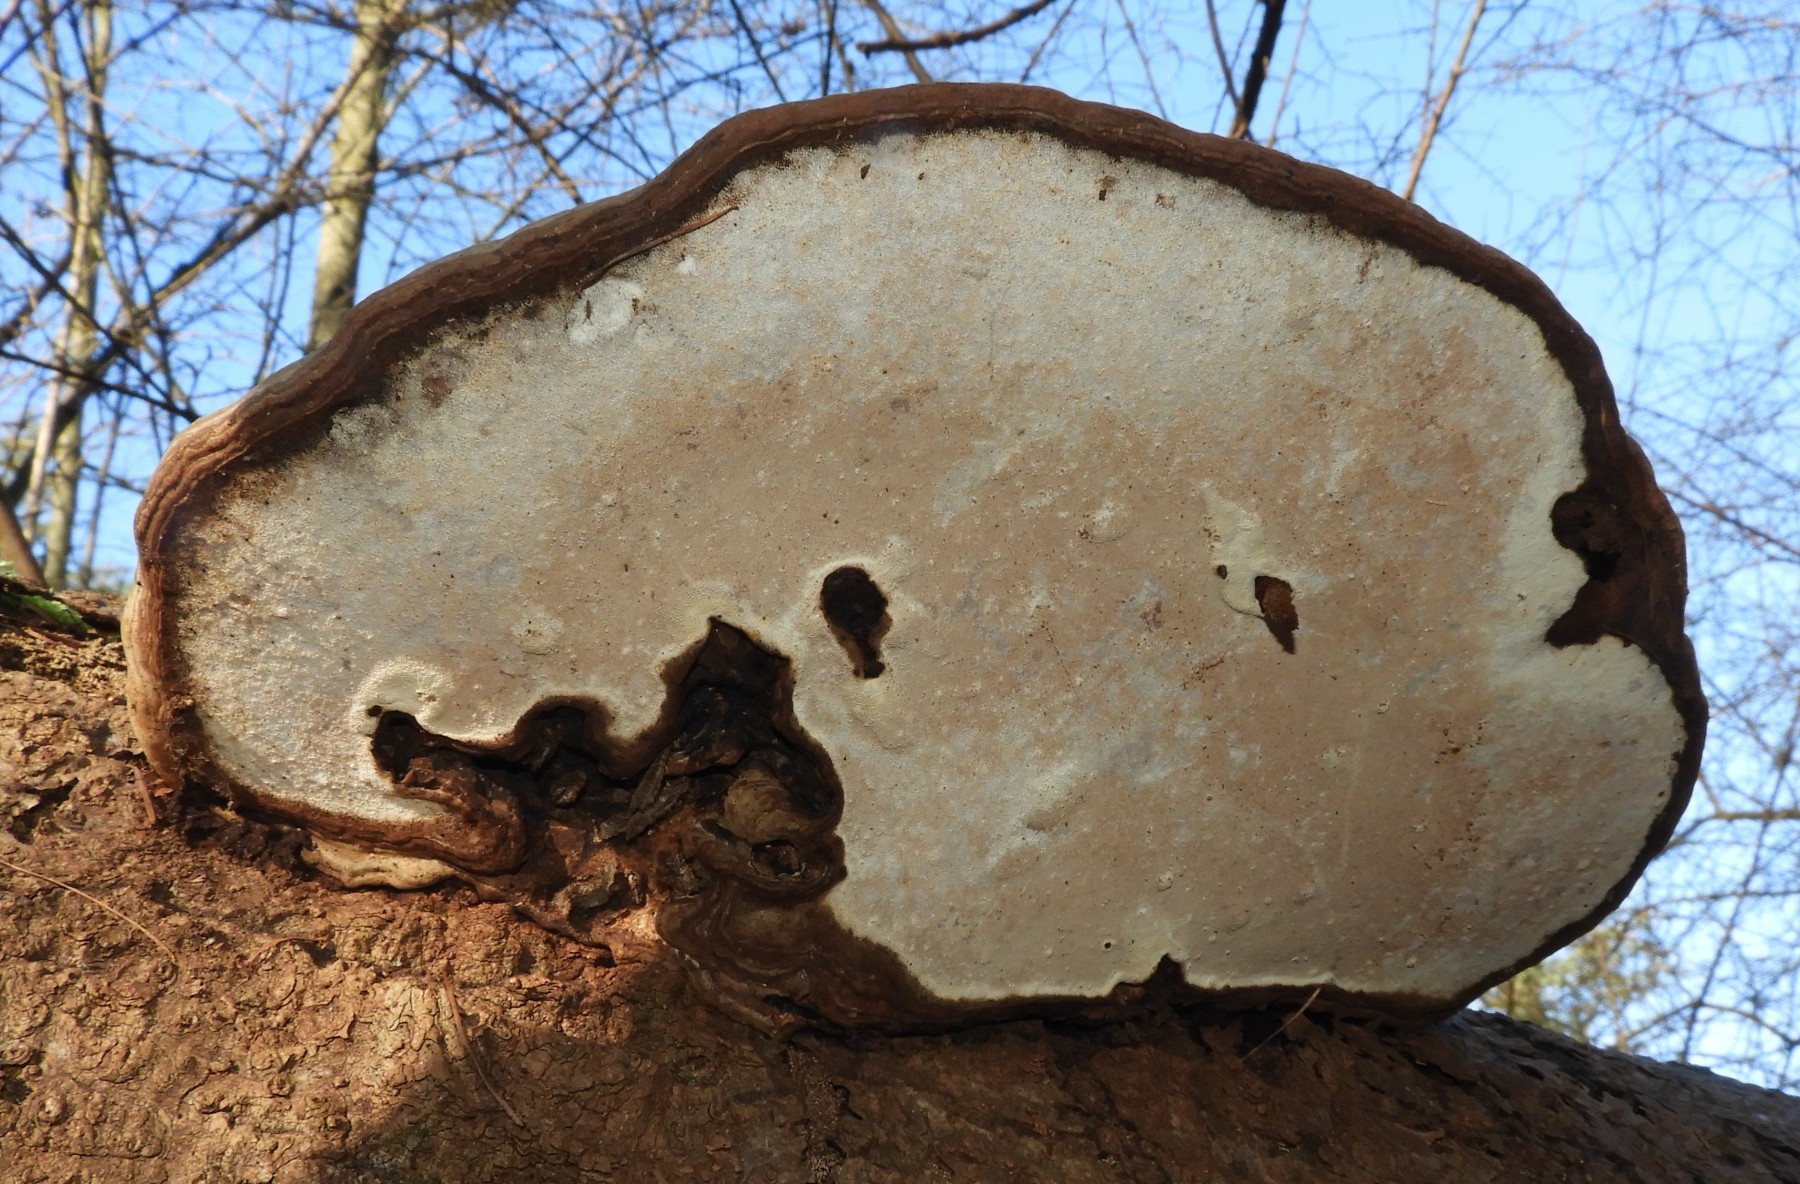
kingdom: Fungi
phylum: Basidiomycota
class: Agaricomycetes
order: Polyporales
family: Polyporaceae
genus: Ganoderma
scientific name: Ganoderma applanatum
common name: flad lakporesvamp
